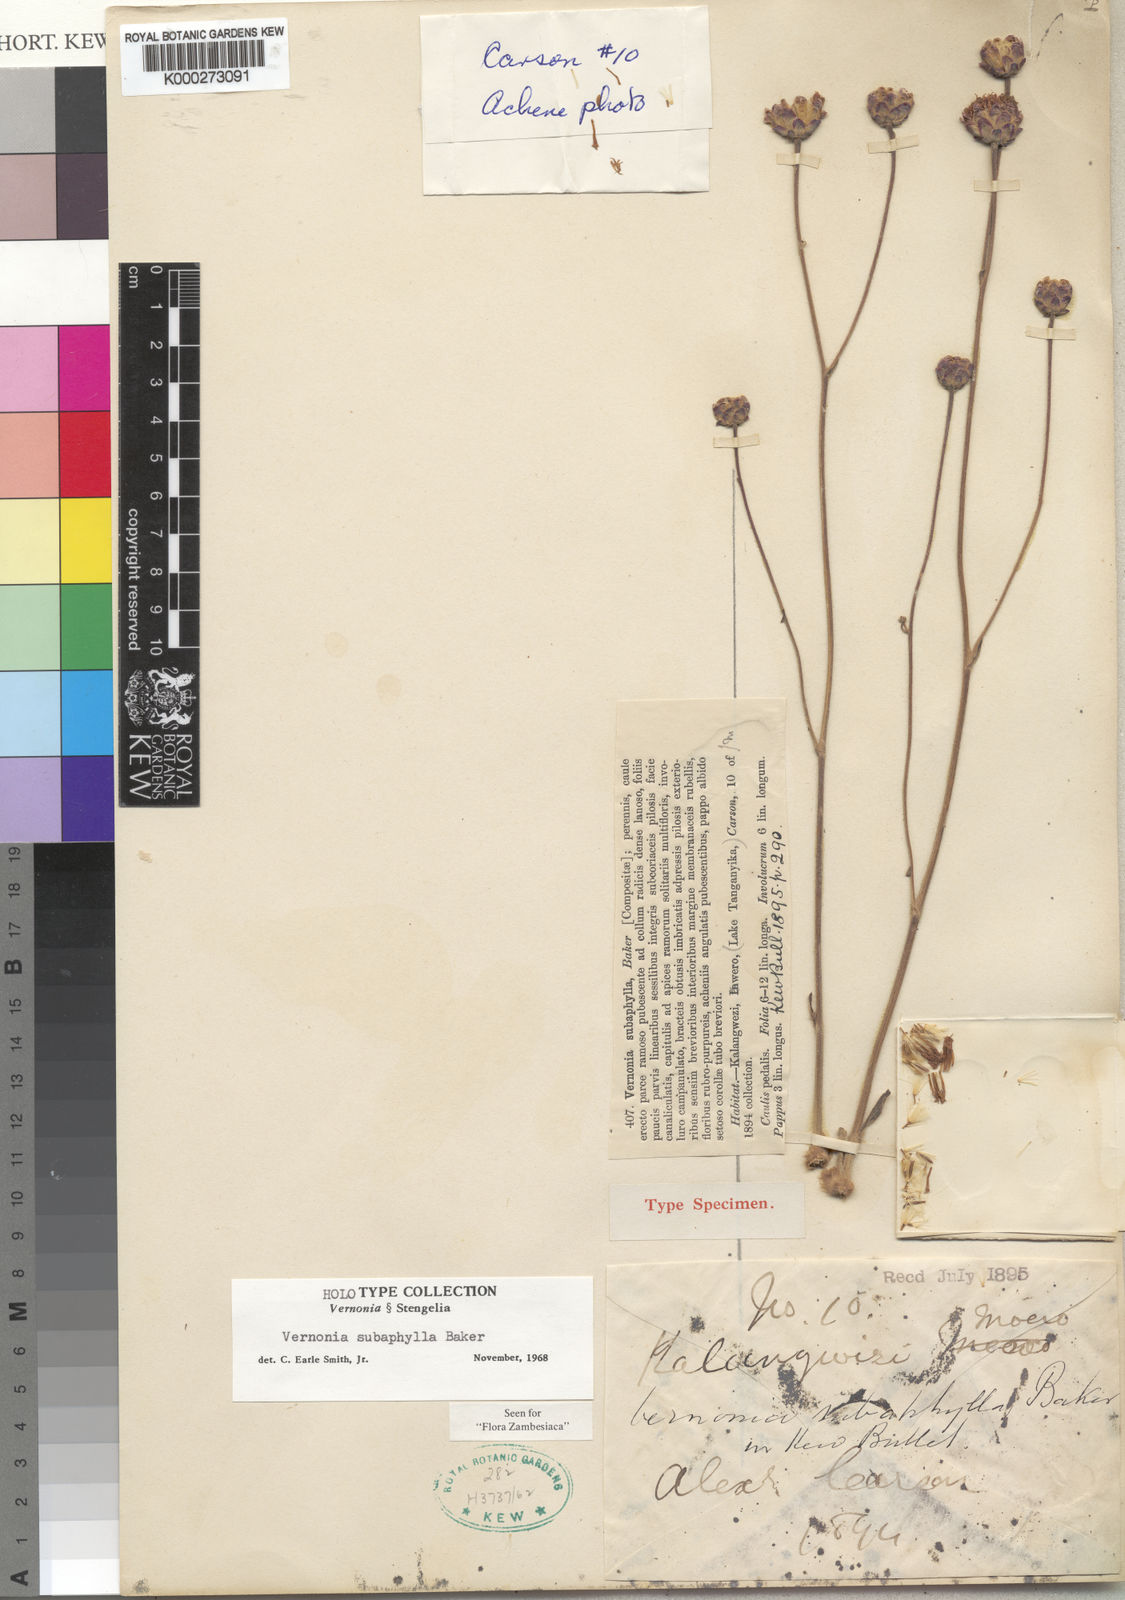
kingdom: Plantae
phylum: Tracheophyta
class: Magnoliopsida
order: Asterales
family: Asteraceae
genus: Vernonella
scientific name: Vernonella subaphylla
